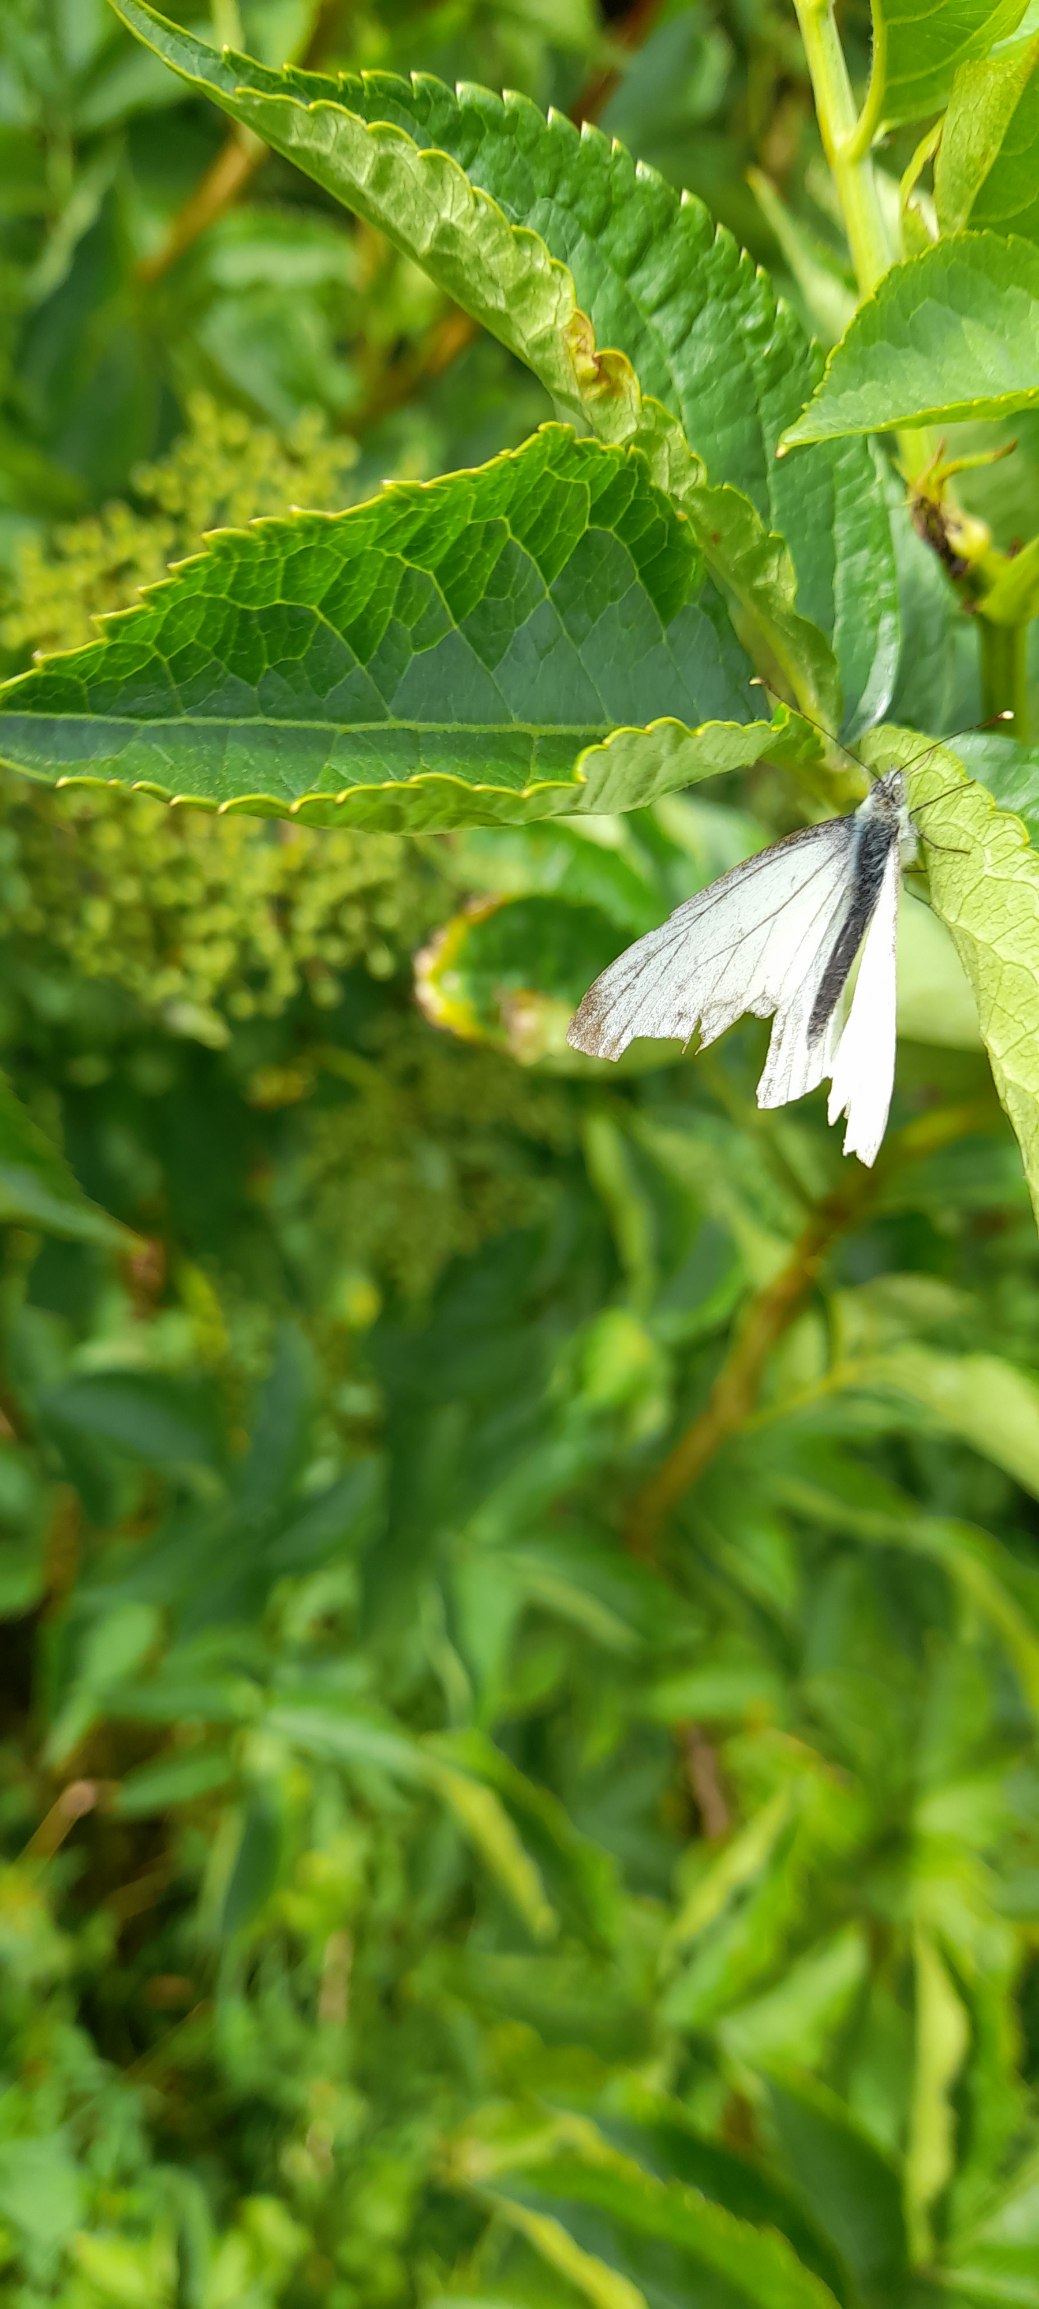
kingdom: Animalia
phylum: Arthropoda
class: Insecta
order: Lepidoptera
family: Pieridae
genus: Pieris
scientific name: Pieris napi
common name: Grønåret kålsommerfugl
